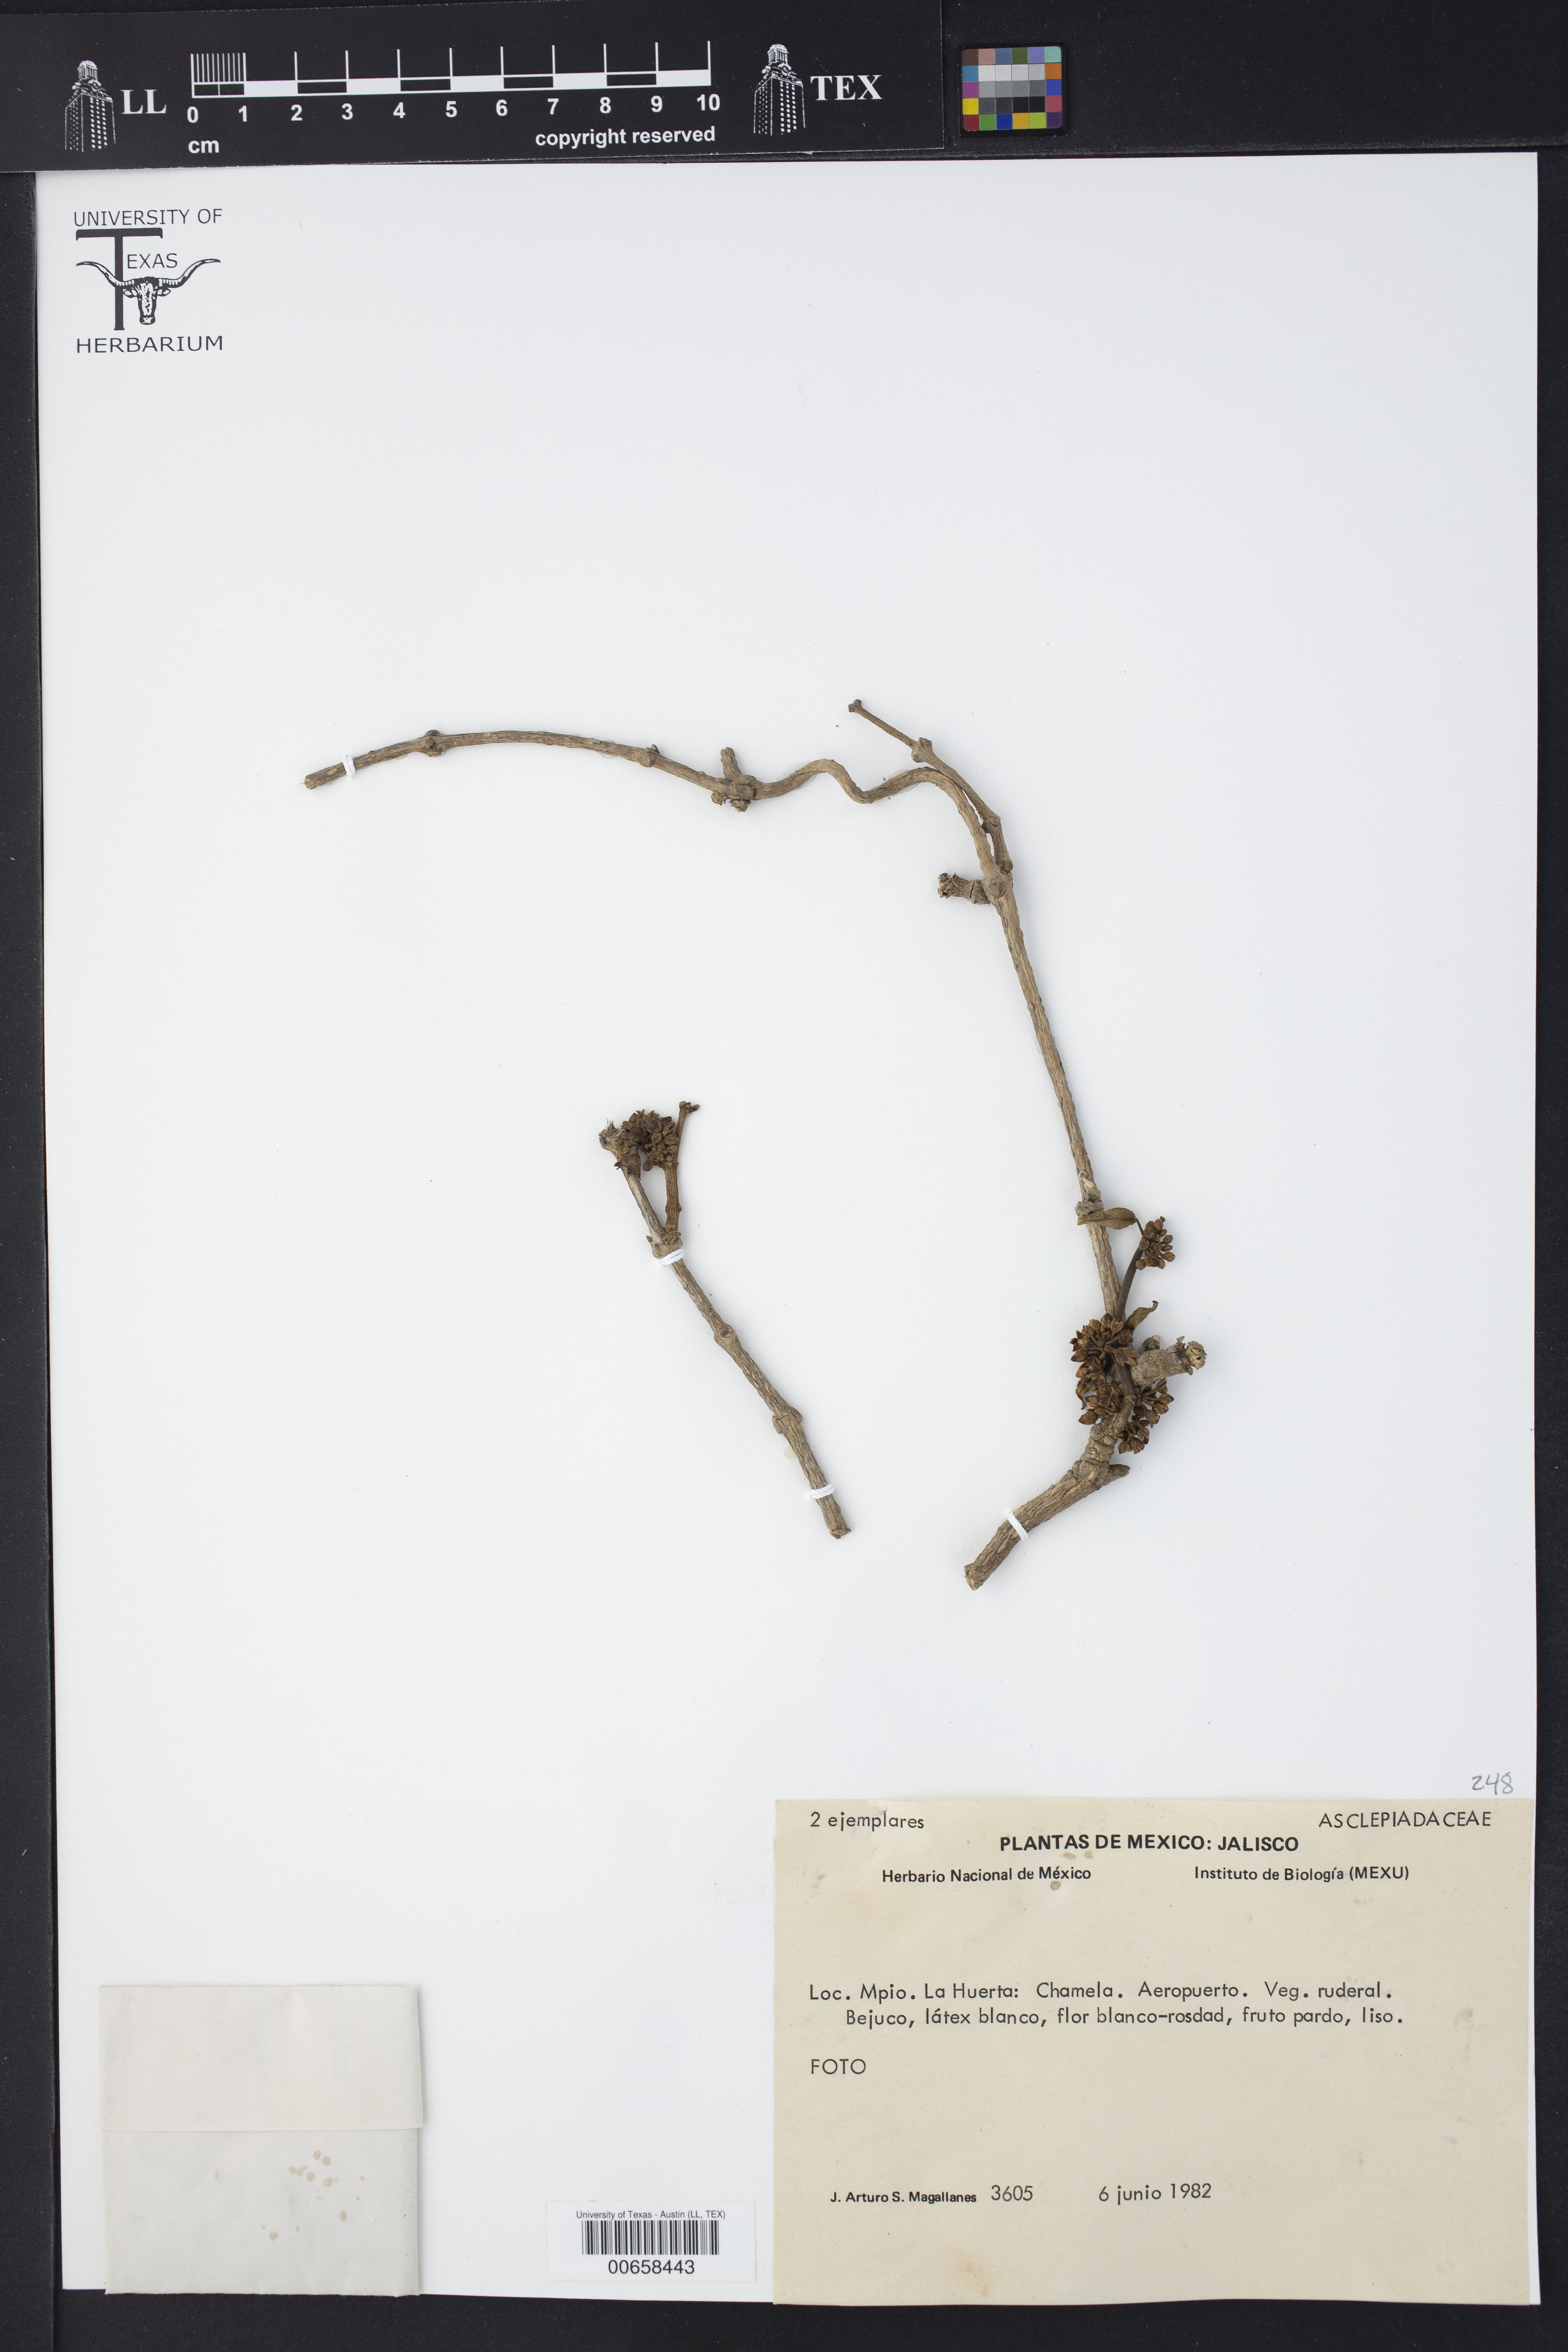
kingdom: Plantae
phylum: Tracheophyta
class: Magnoliopsida
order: Gentianales
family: Asclepiadaceae
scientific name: Asclepiadaceae
